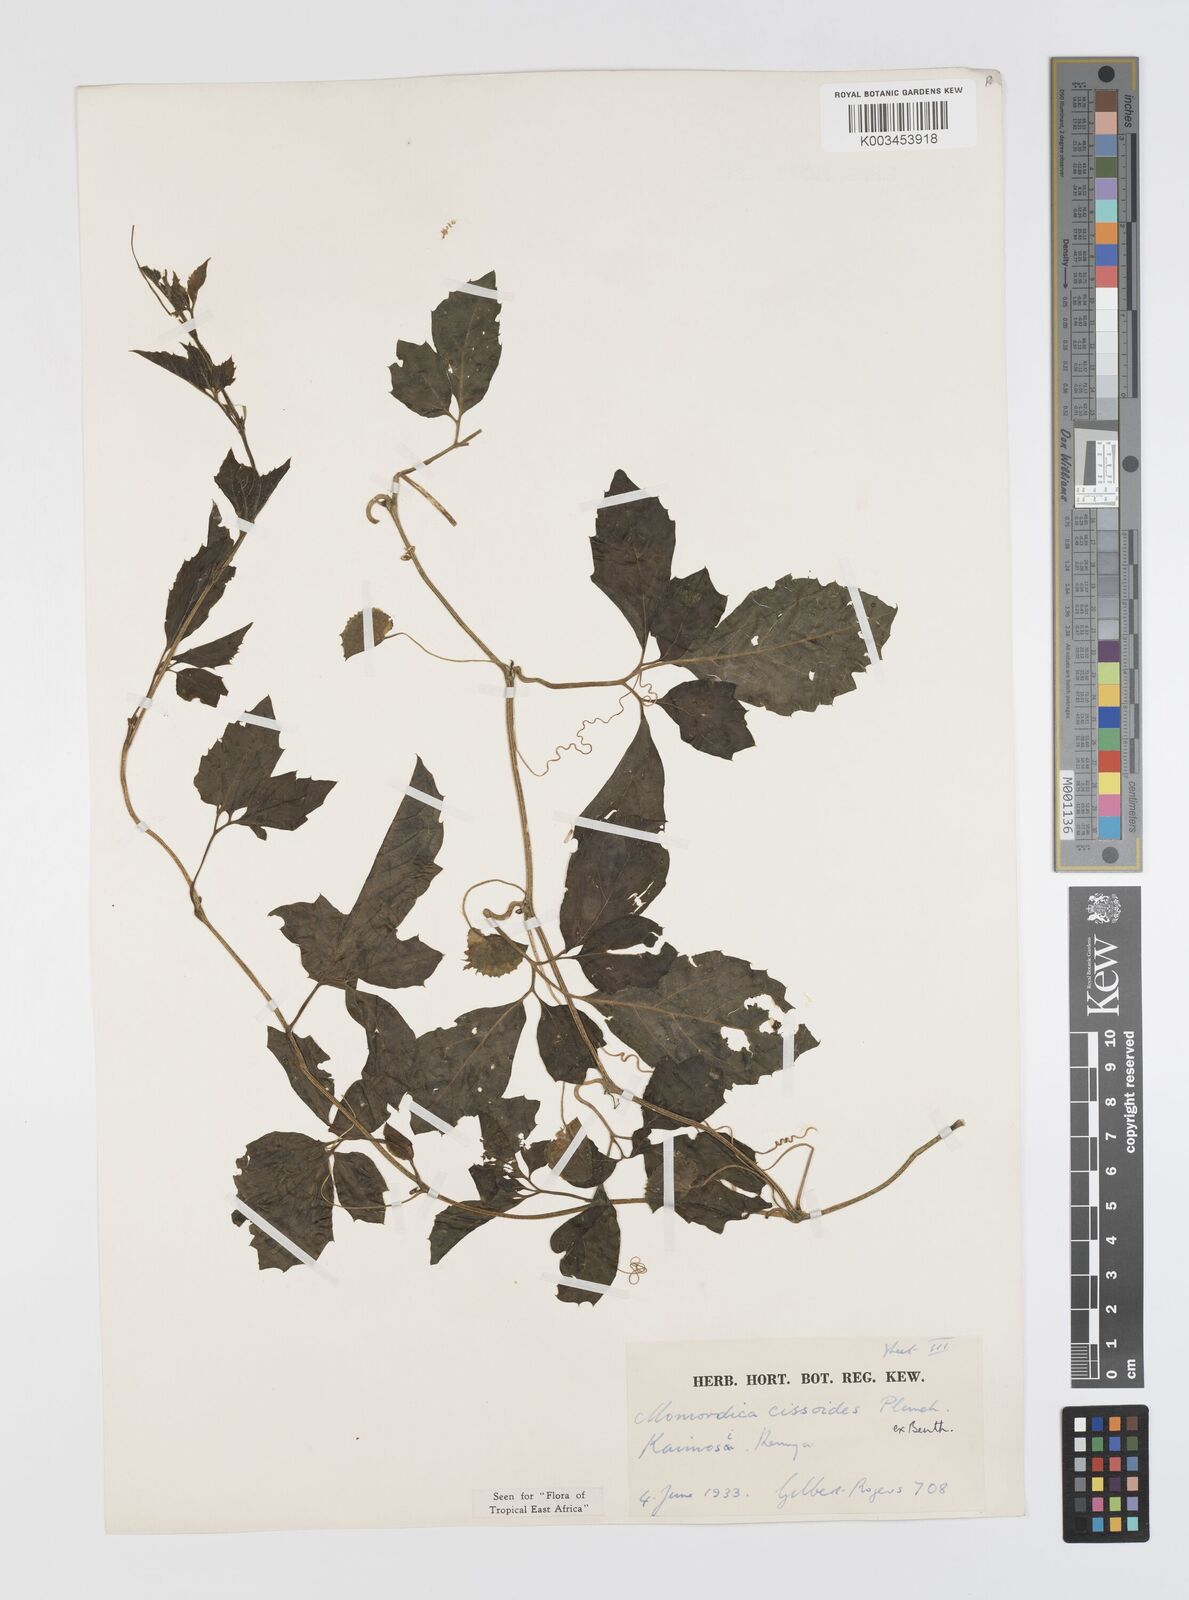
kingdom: Plantae
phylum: Tracheophyta
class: Magnoliopsida
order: Cucurbitales
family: Cucurbitaceae
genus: Momordica
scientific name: Momordica cissoides
